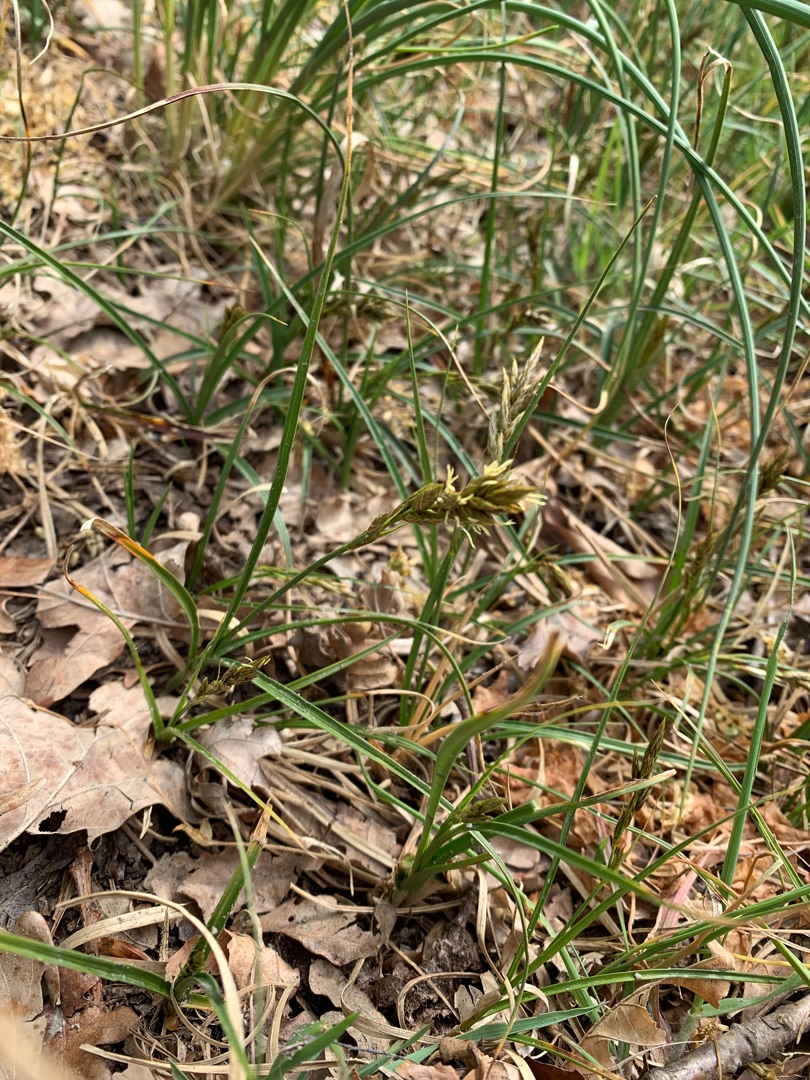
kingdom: Plantae
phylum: Tracheophyta
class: Liliopsida
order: Poales
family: Cyperaceae
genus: Carex
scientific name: Carex arenaria
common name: Sand-star
